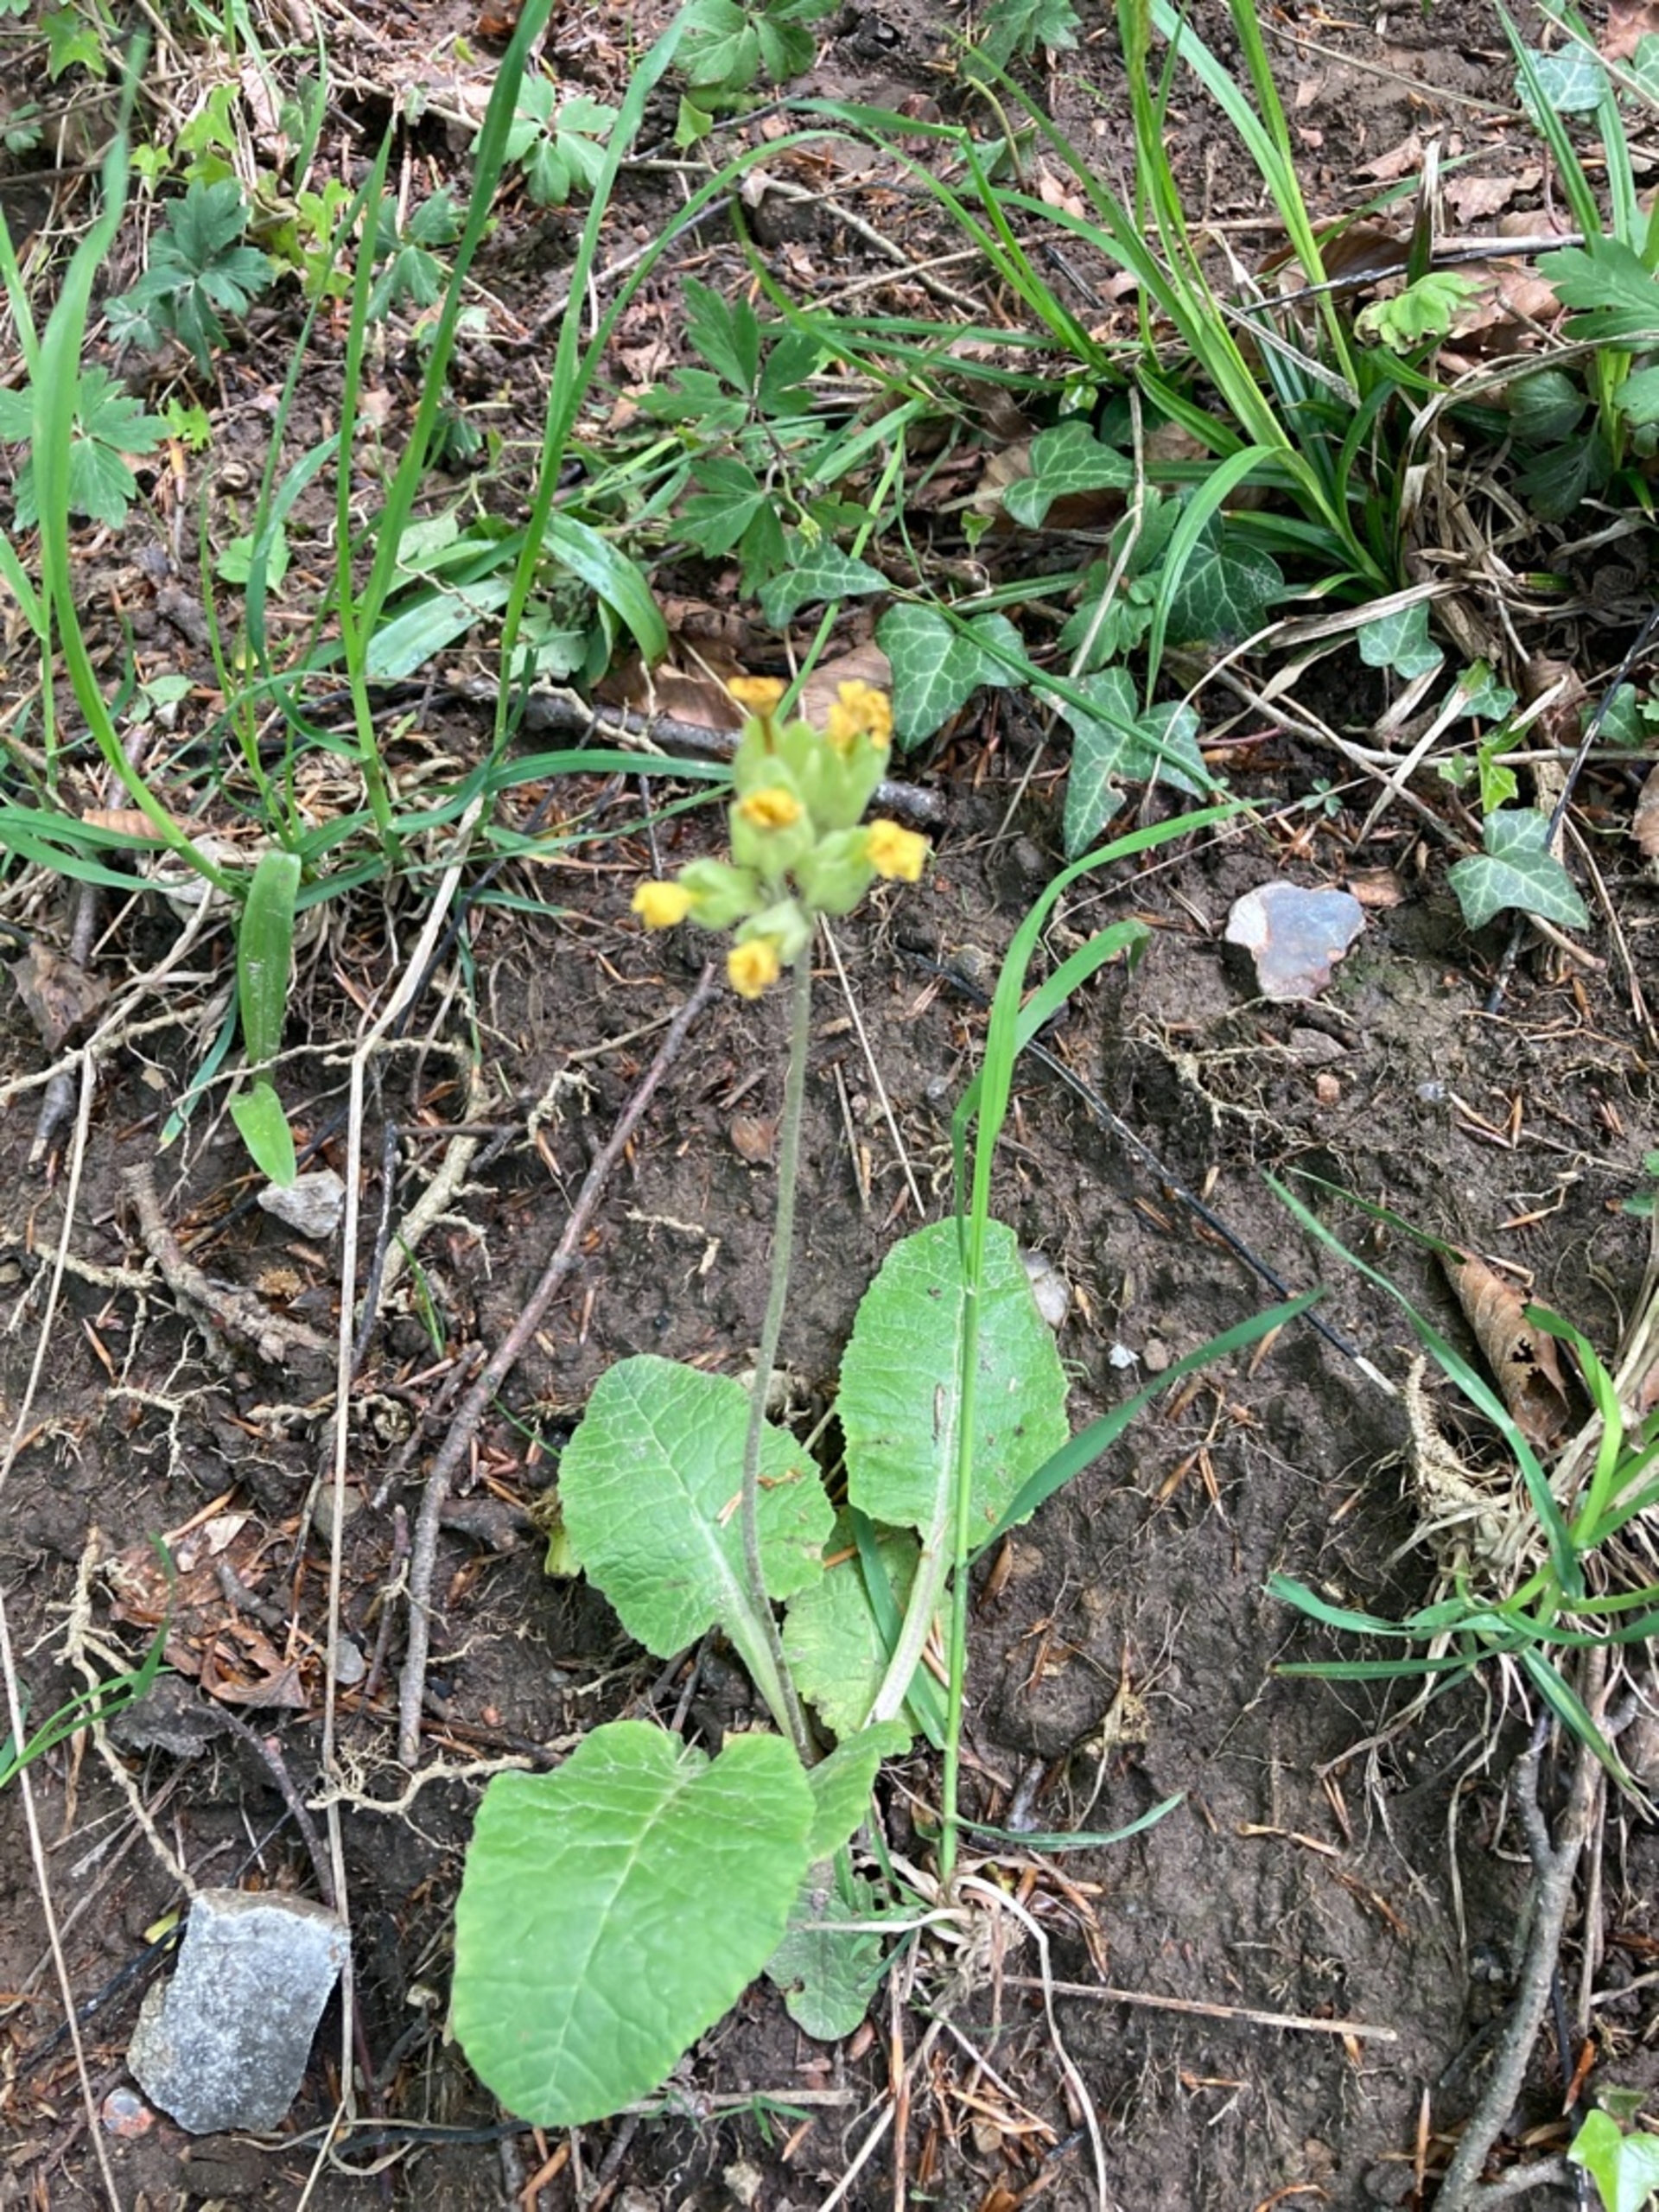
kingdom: Plantae
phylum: Tracheophyta
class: Magnoliopsida
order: Ericales
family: Primulaceae
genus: Primula
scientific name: Primula veris
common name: Hulkravet kodriver
